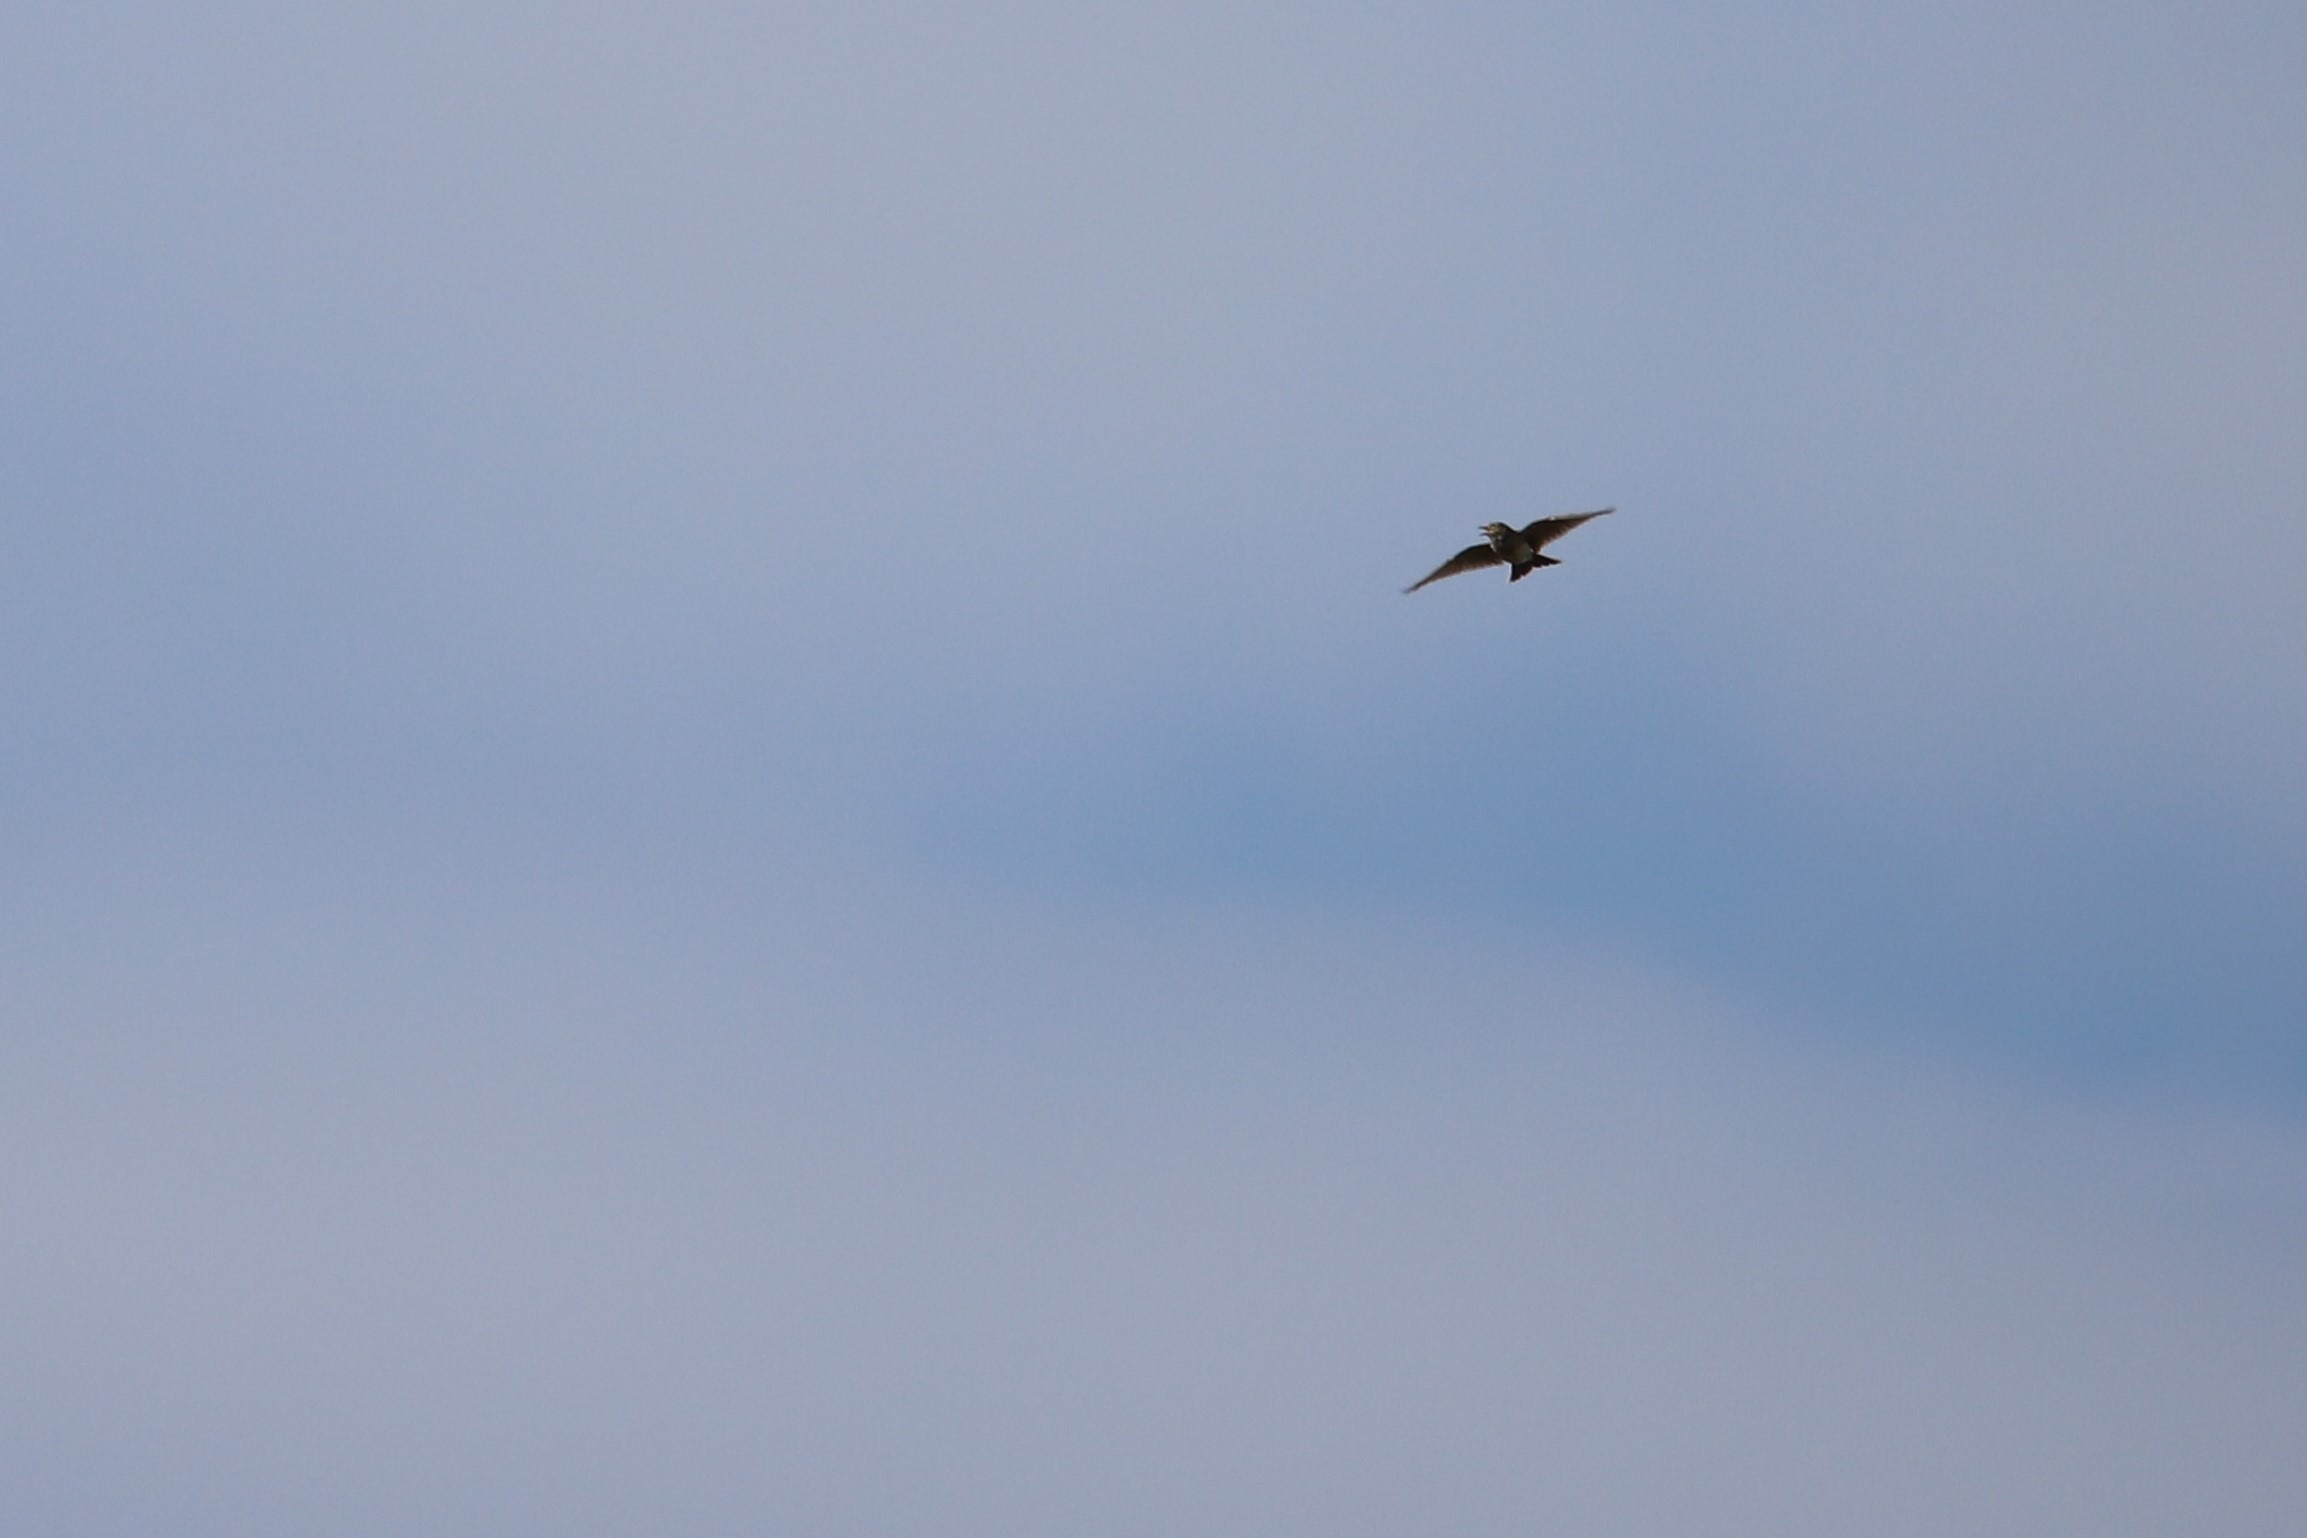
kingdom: Animalia
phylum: Chordata
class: Aves
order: Passeriformes
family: Alaudidae
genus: Alauda
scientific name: Alauda arvensis
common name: Sanglærke
